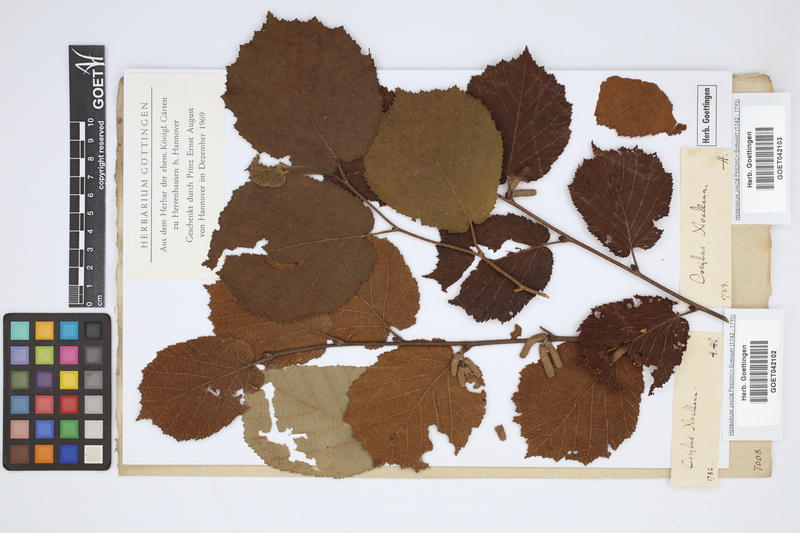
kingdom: Plantae
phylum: Tracheophyta
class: Magnoliopsida
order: Fagales
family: Betulaceae
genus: Corylus
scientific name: Corylus avellana
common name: European hazel
